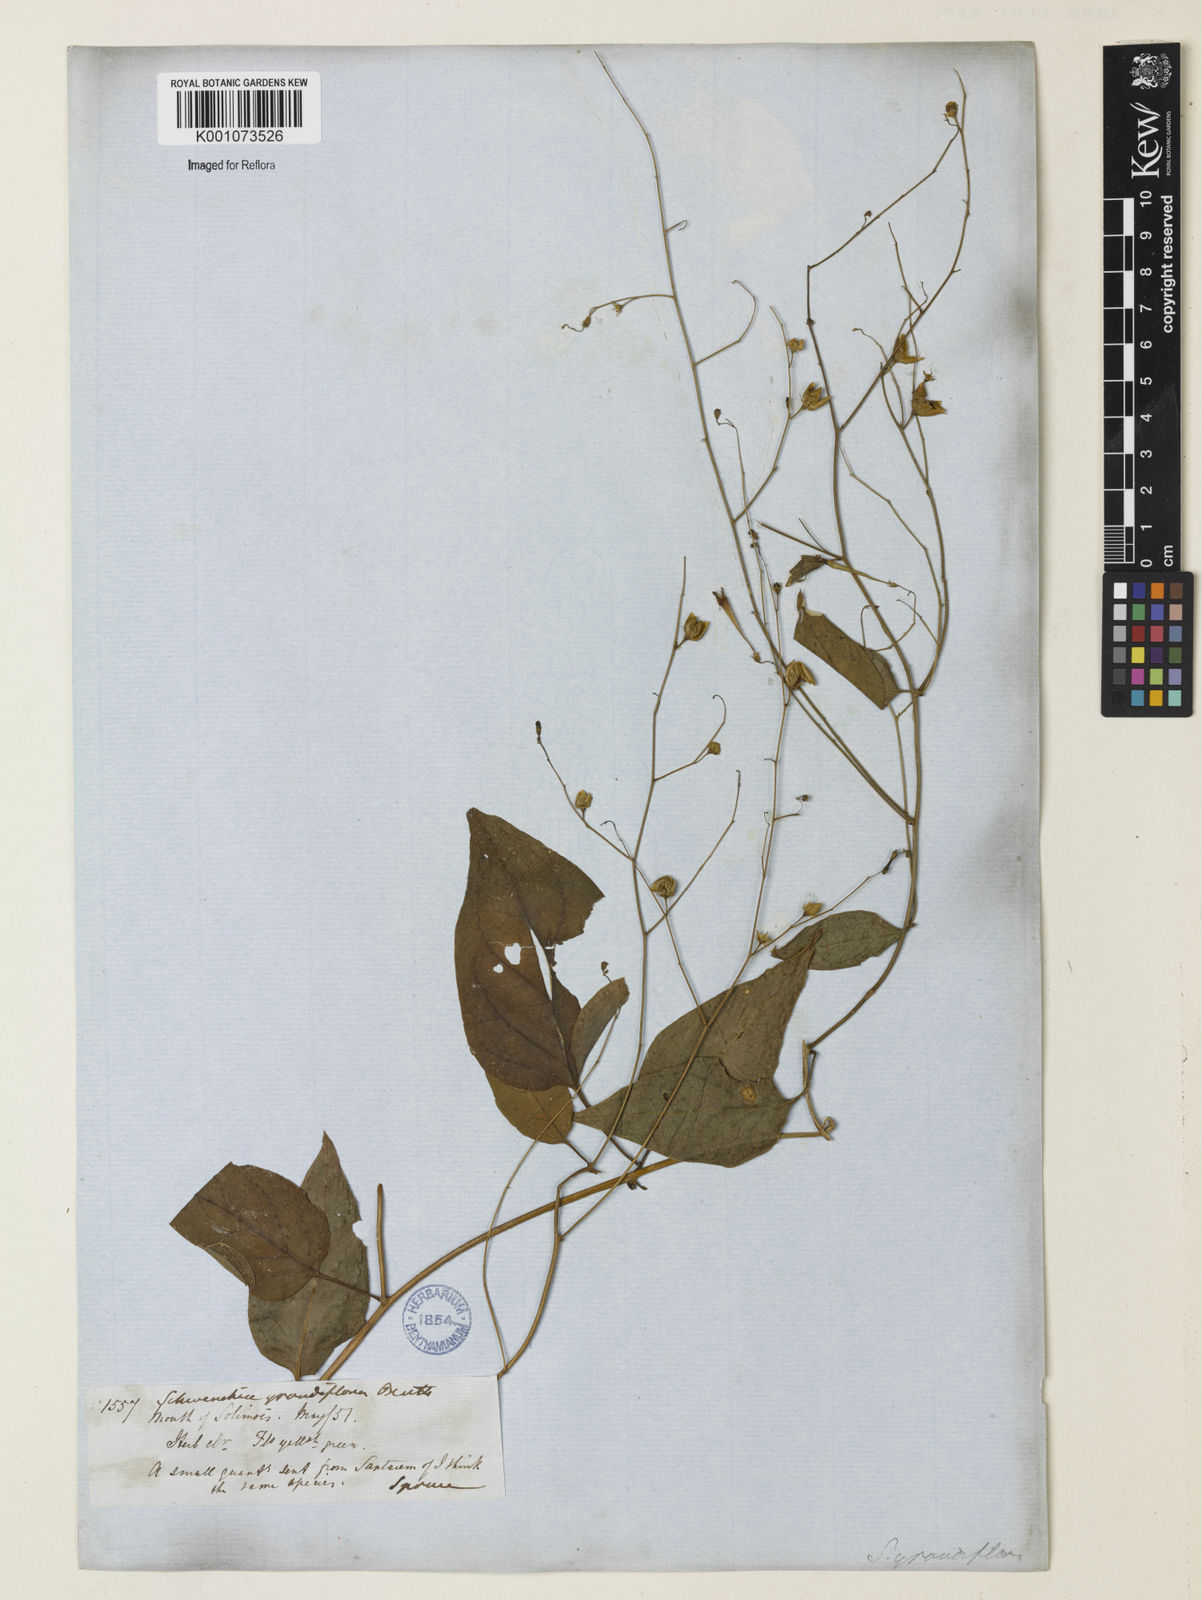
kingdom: Plantae
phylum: Tracheophyta
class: Magnoliopsida
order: Solanales
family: Solanaceae
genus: Schwenckia
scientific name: Schwenckia grandiflora
